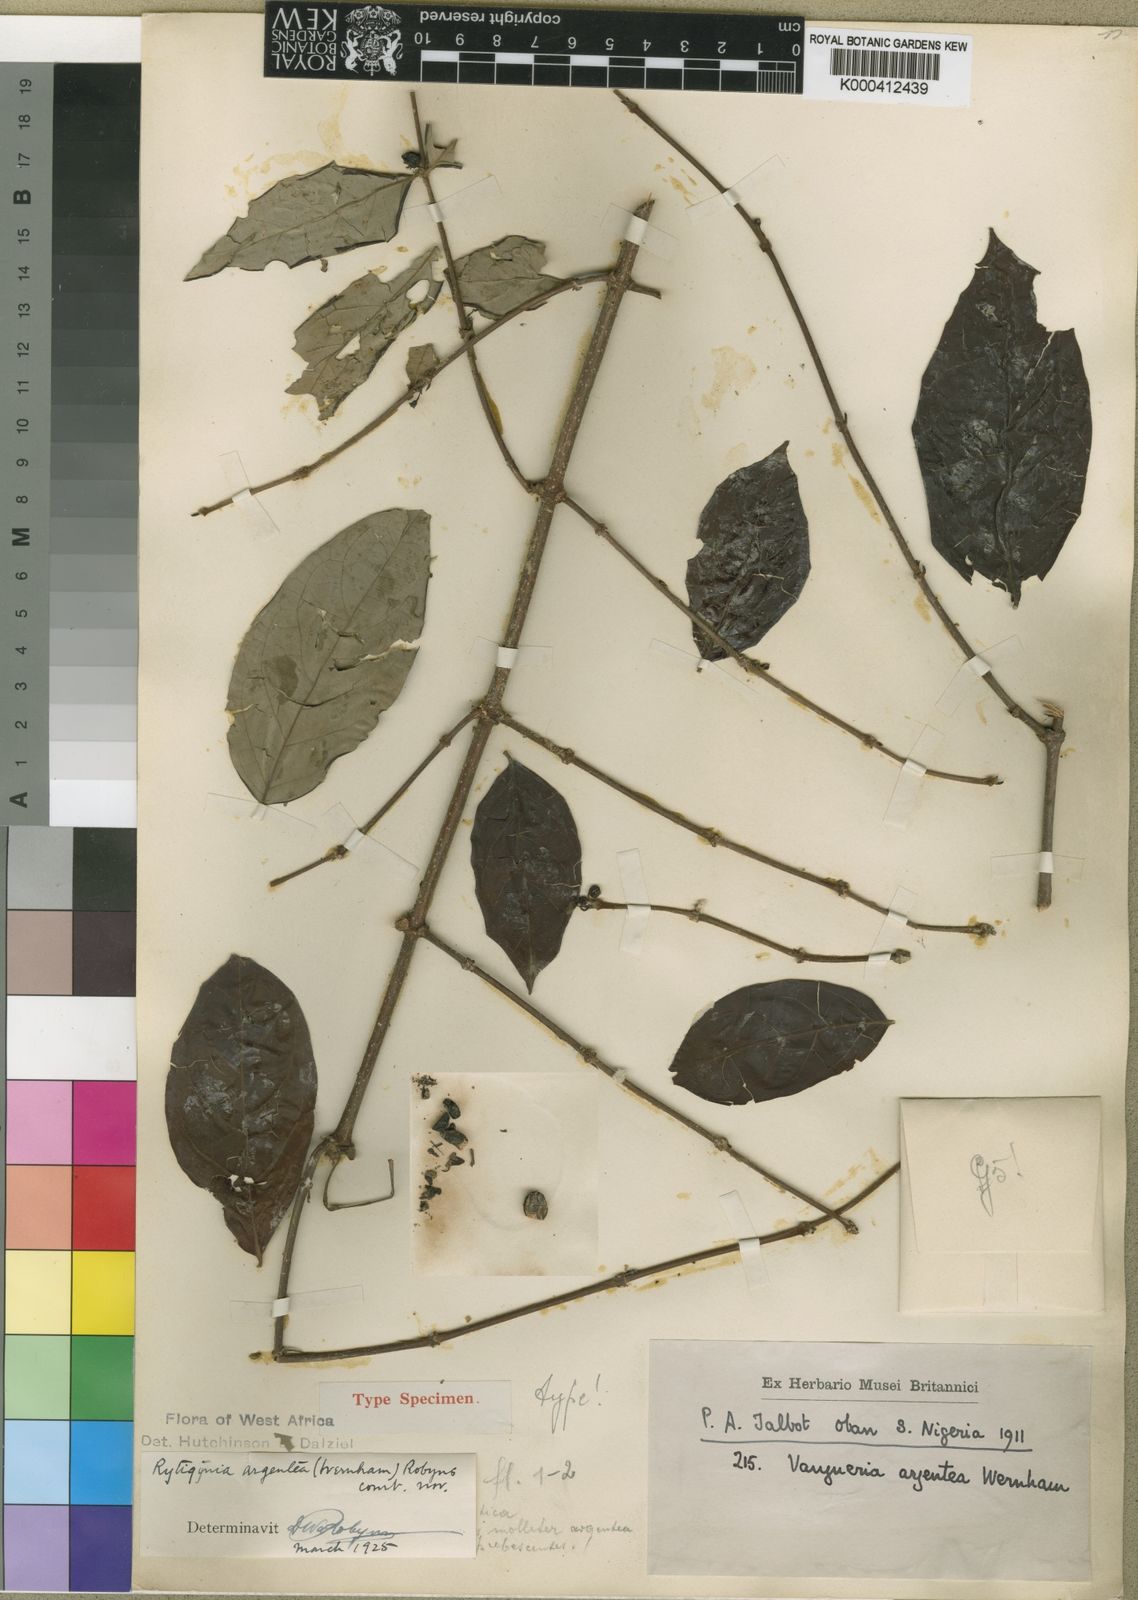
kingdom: Plantae
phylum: Tracheophyta
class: Magnoliopsida
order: Gentianales
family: Rubiaceae
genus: Rytigynia
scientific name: Rytigynia argentea
